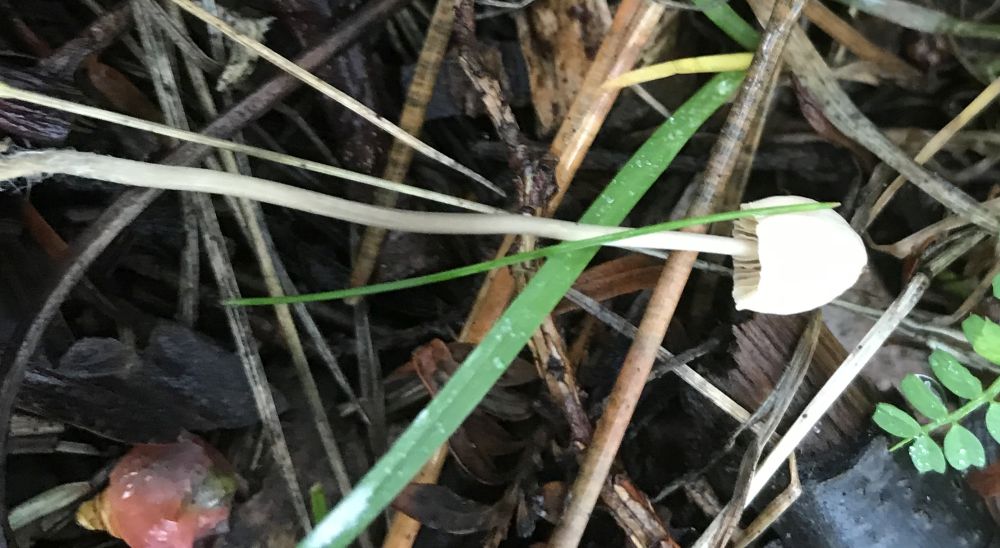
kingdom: Fungi
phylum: Basidiomycota
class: Agaricomycetes
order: Agaricales
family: Mycenaceae
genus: Mycena
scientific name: Mycena
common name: huesvamp
